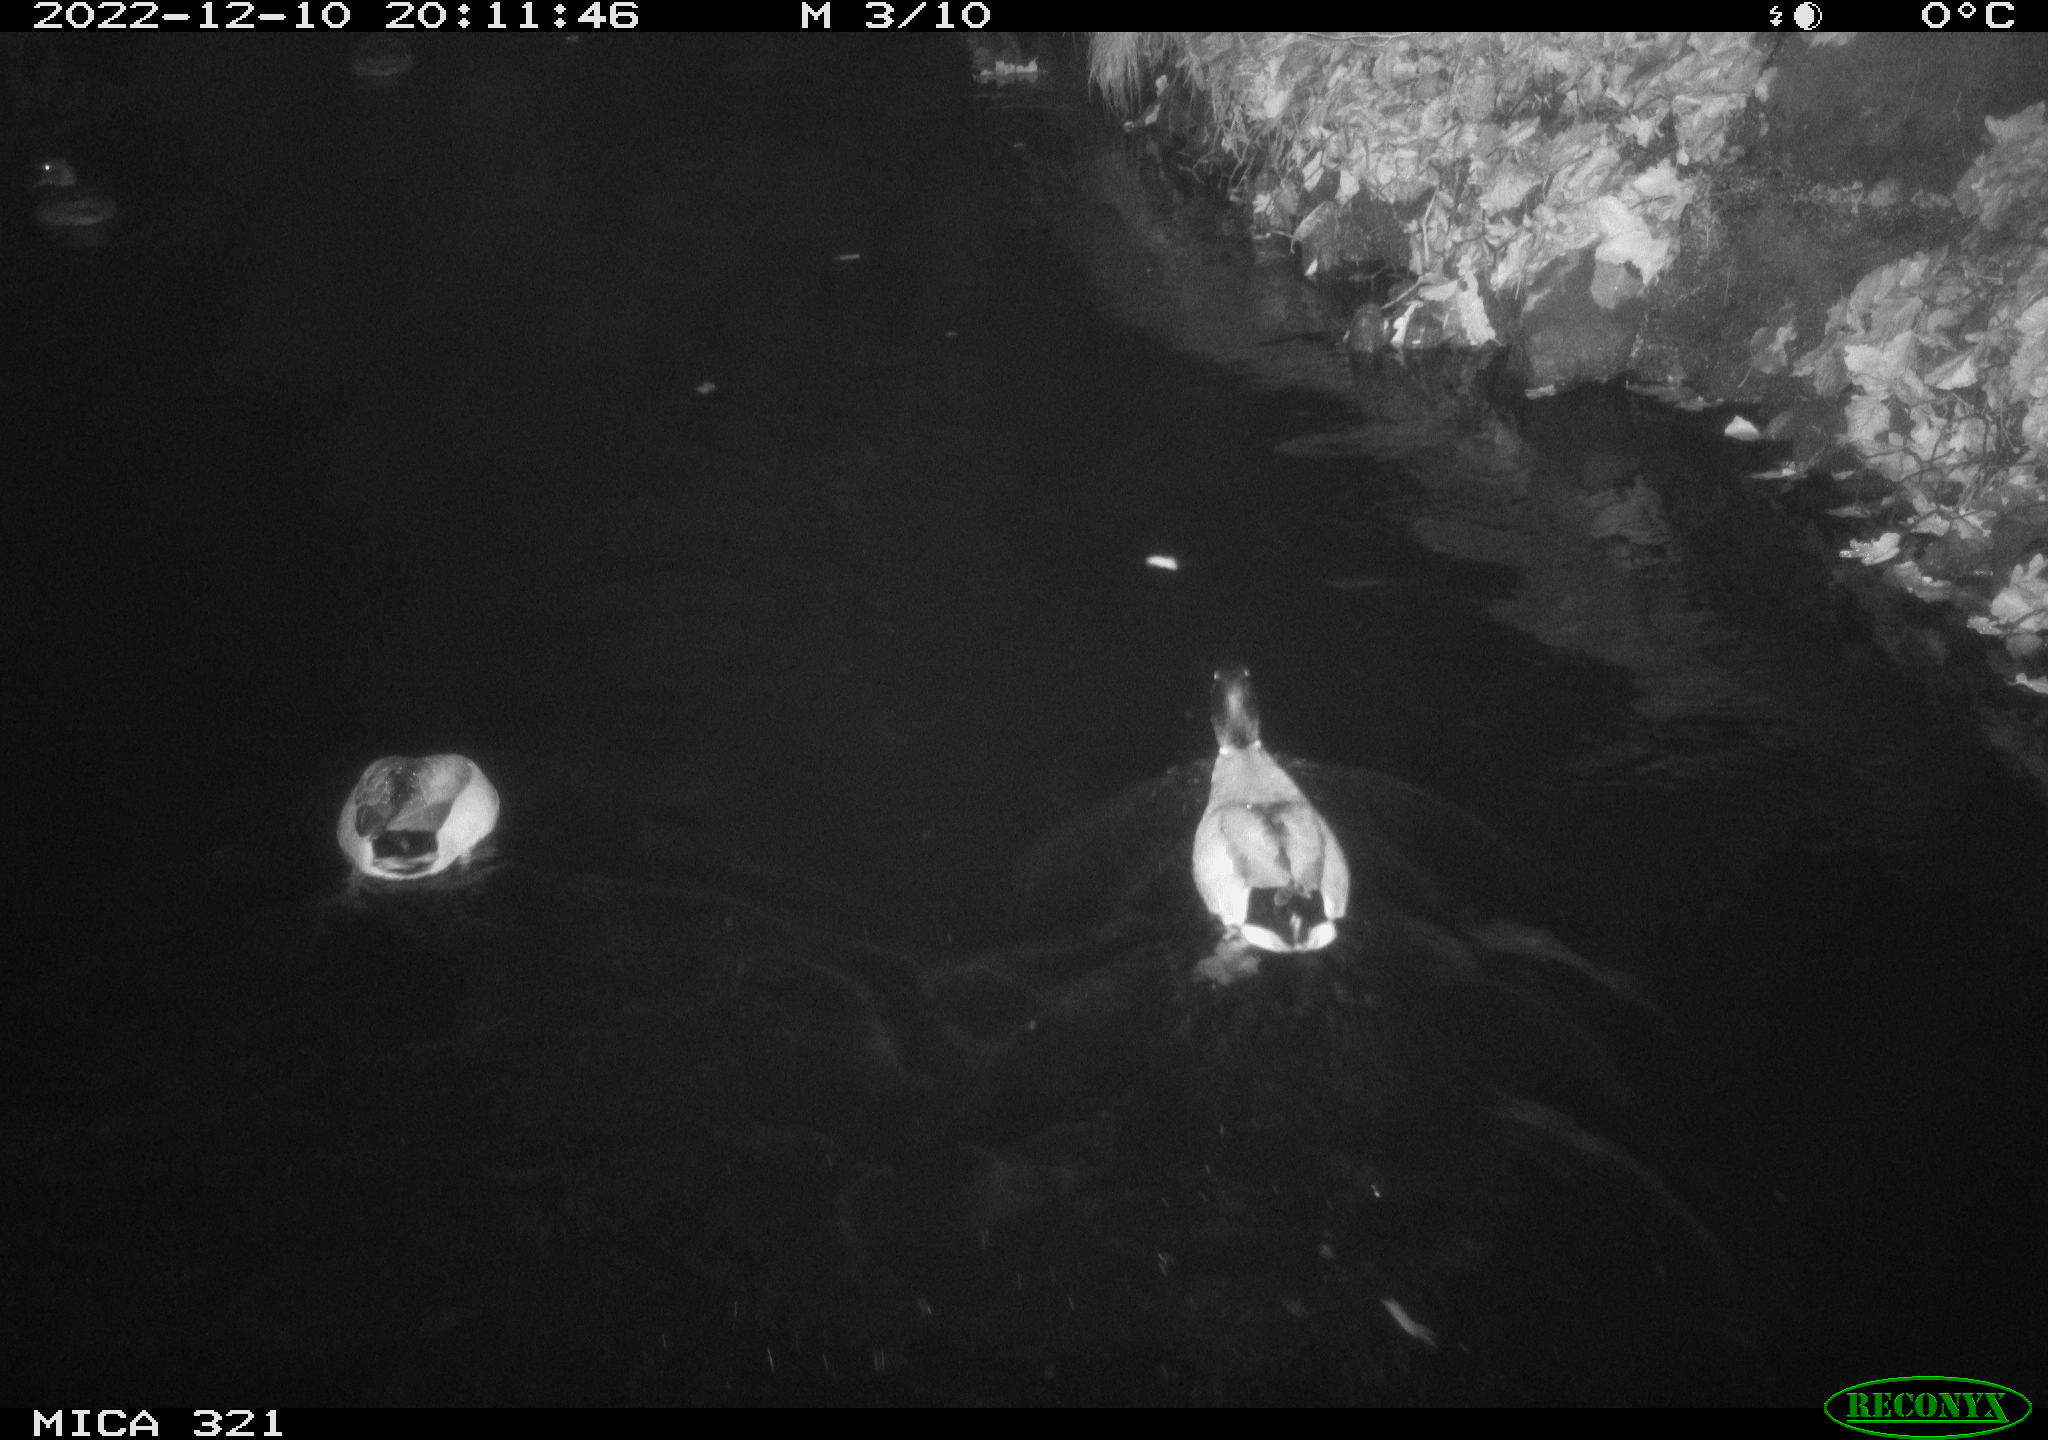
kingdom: Animalia
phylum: Chordata
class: Aves
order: Anseriformes
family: Anatidae
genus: Anas
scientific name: Anas
